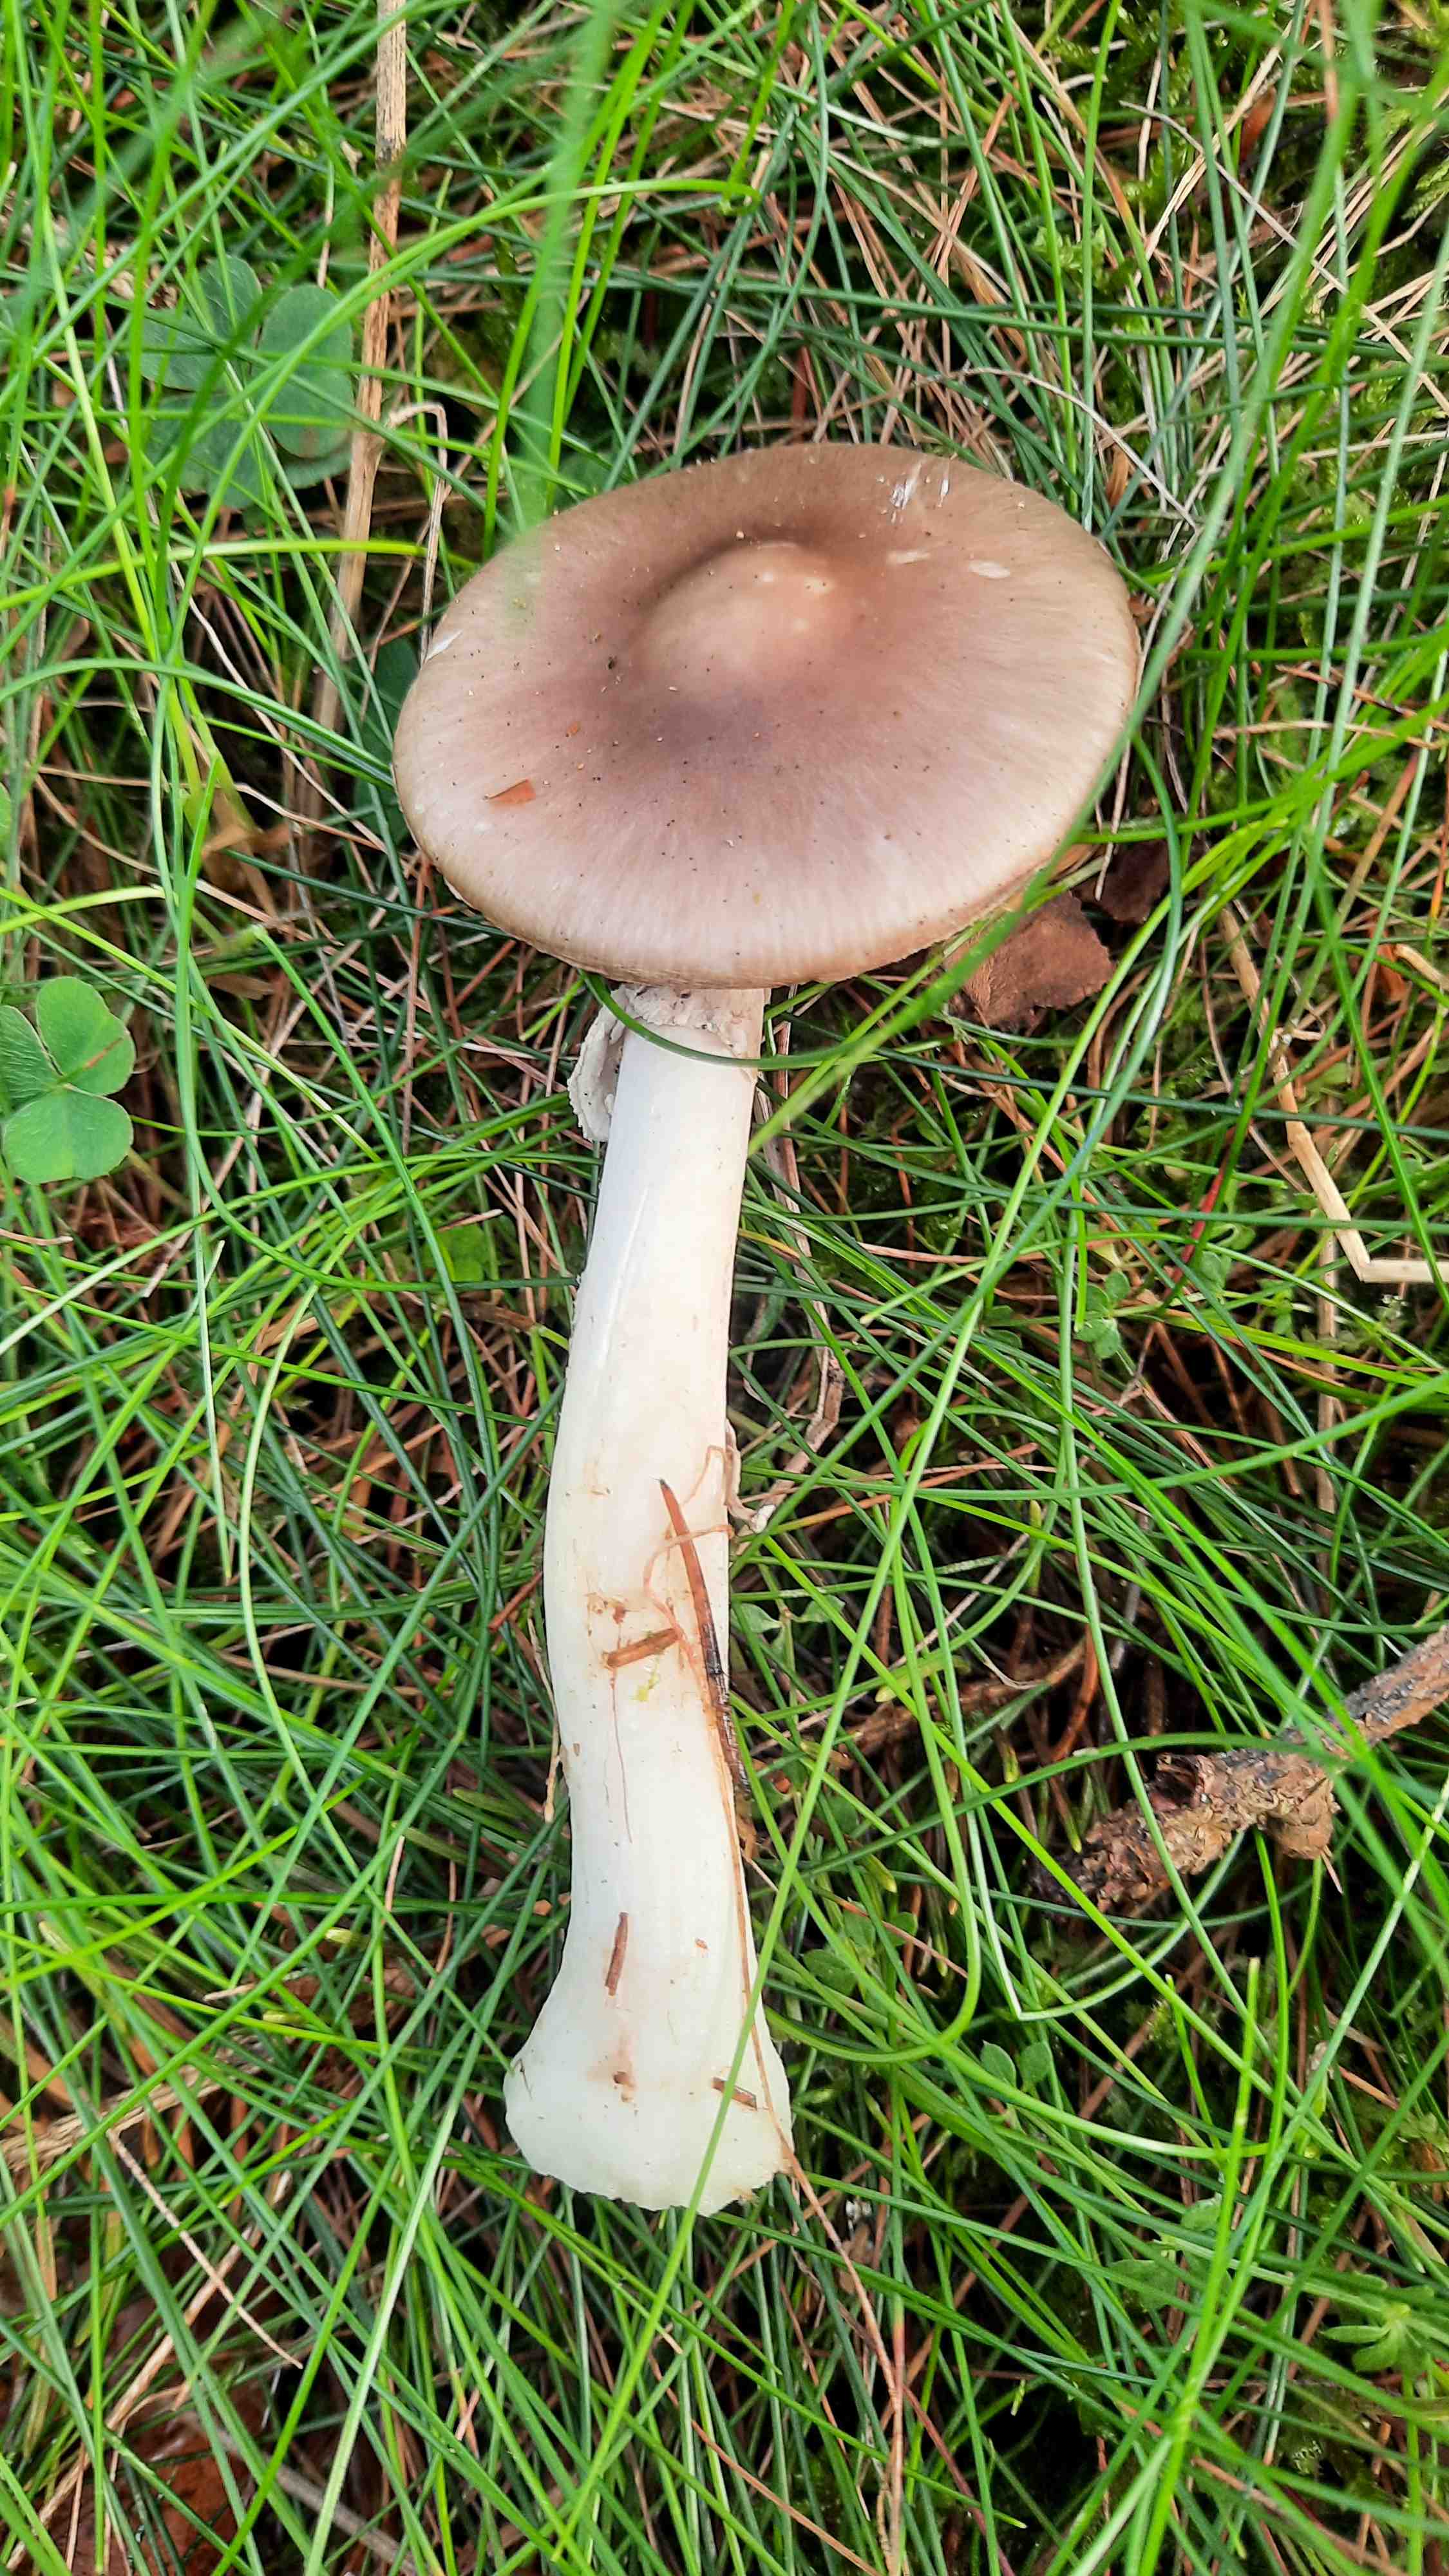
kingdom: Fungi
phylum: Basidiomycota
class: Agaricomycetes
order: Agaricales
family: Amanitaceae
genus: Amanita
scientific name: Amanita porphyria
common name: porfyr-fluesvamp
